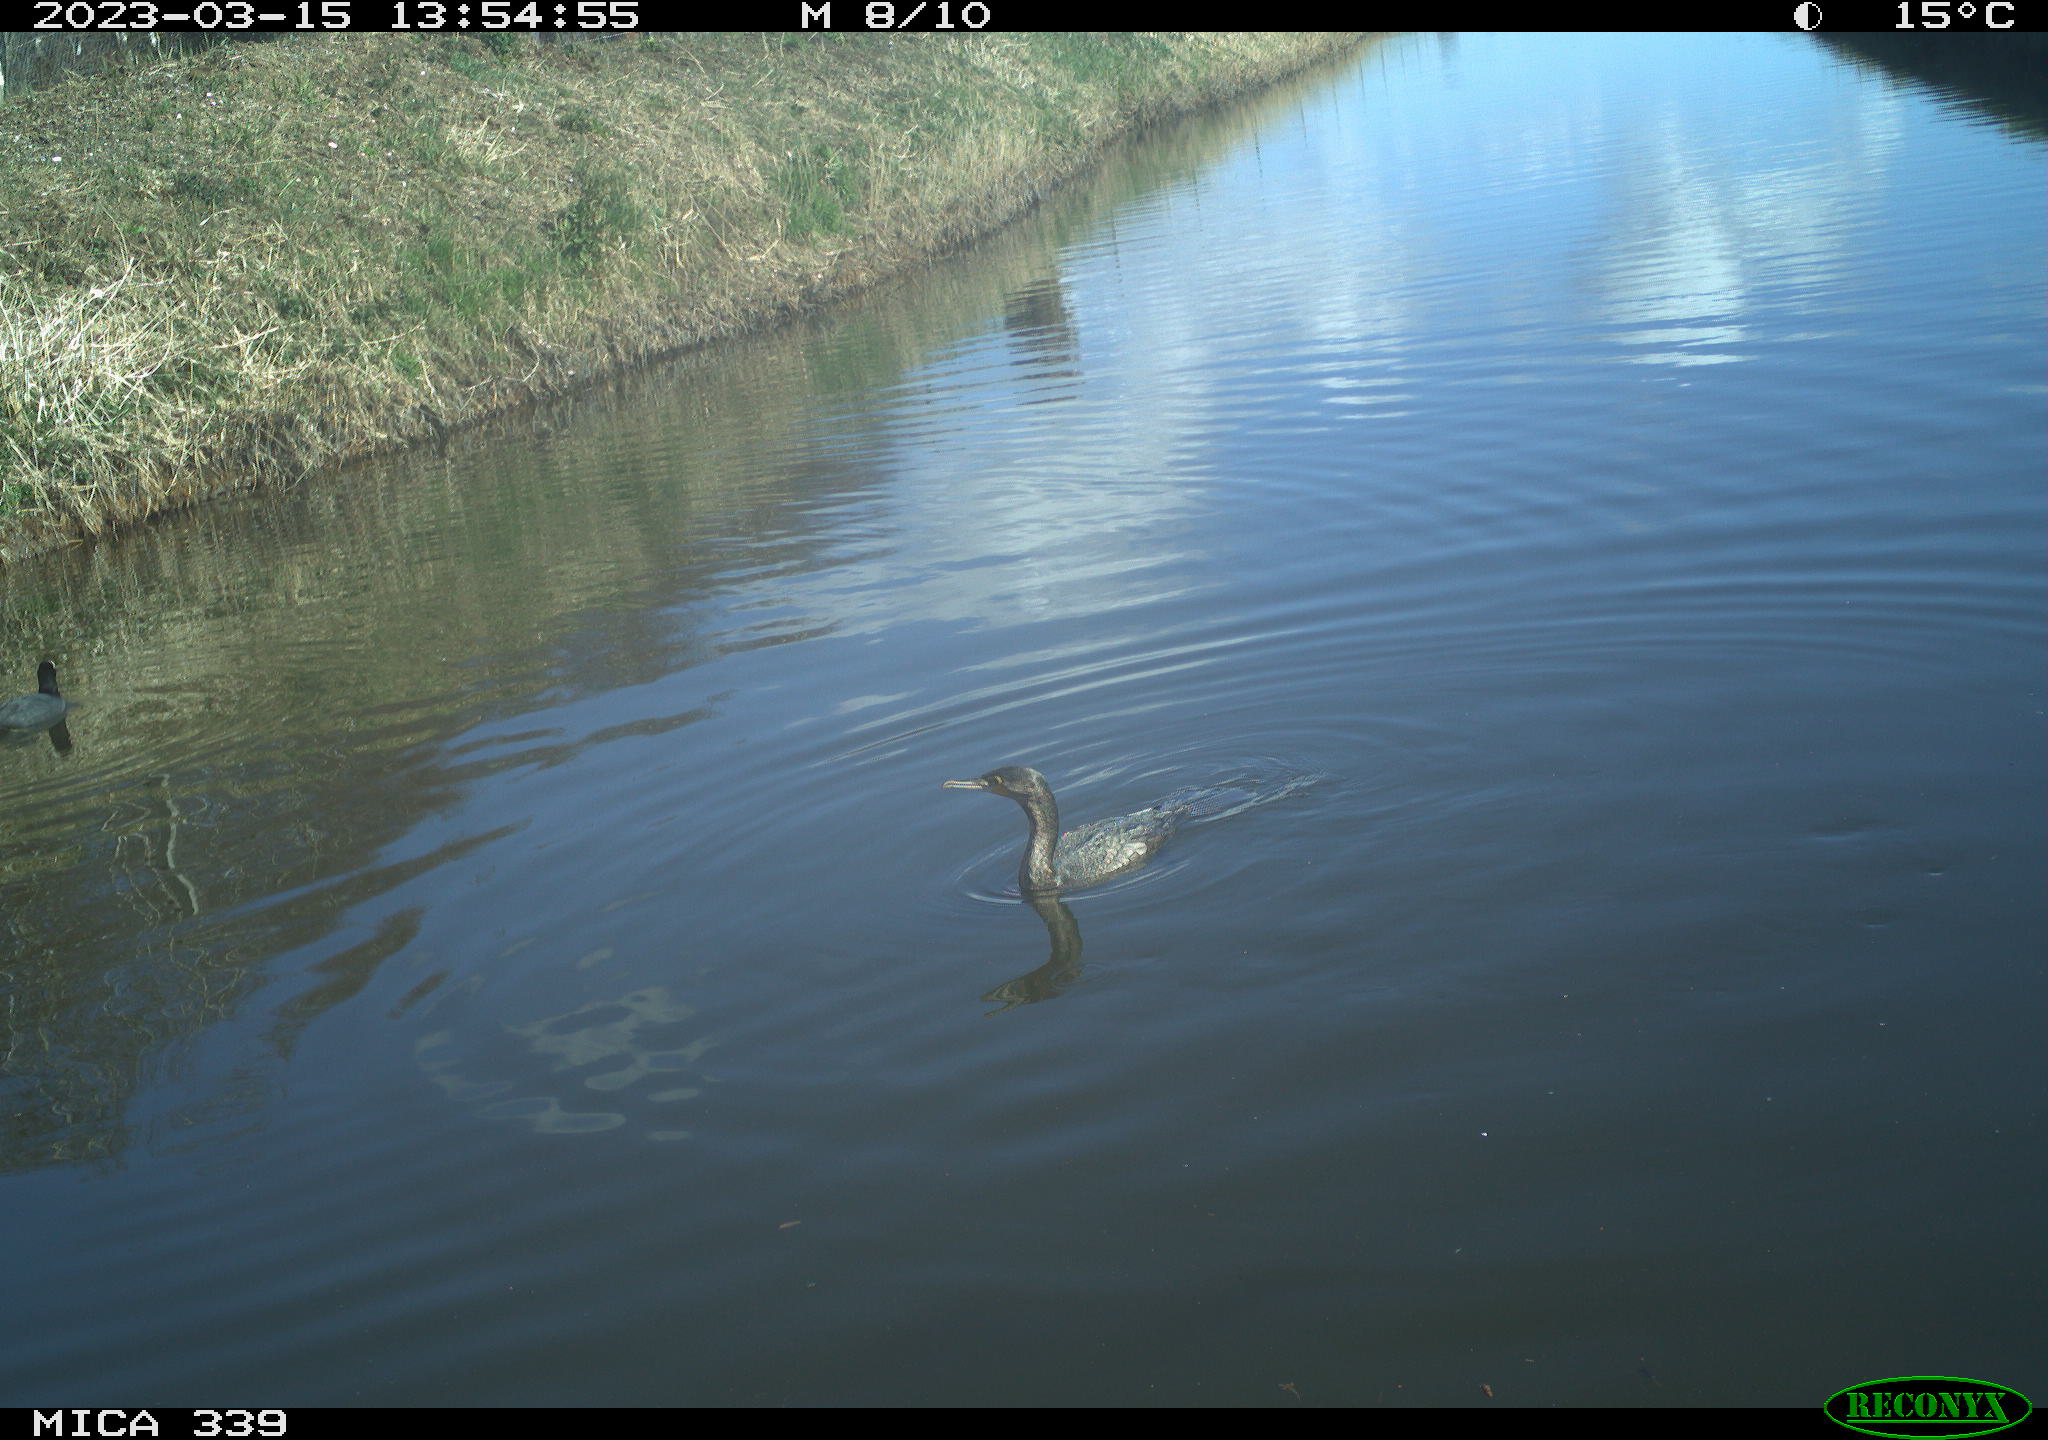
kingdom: Animalia
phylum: Chordata
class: Aves
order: Anseriformes
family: Anatidae
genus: Anas
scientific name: Anas
